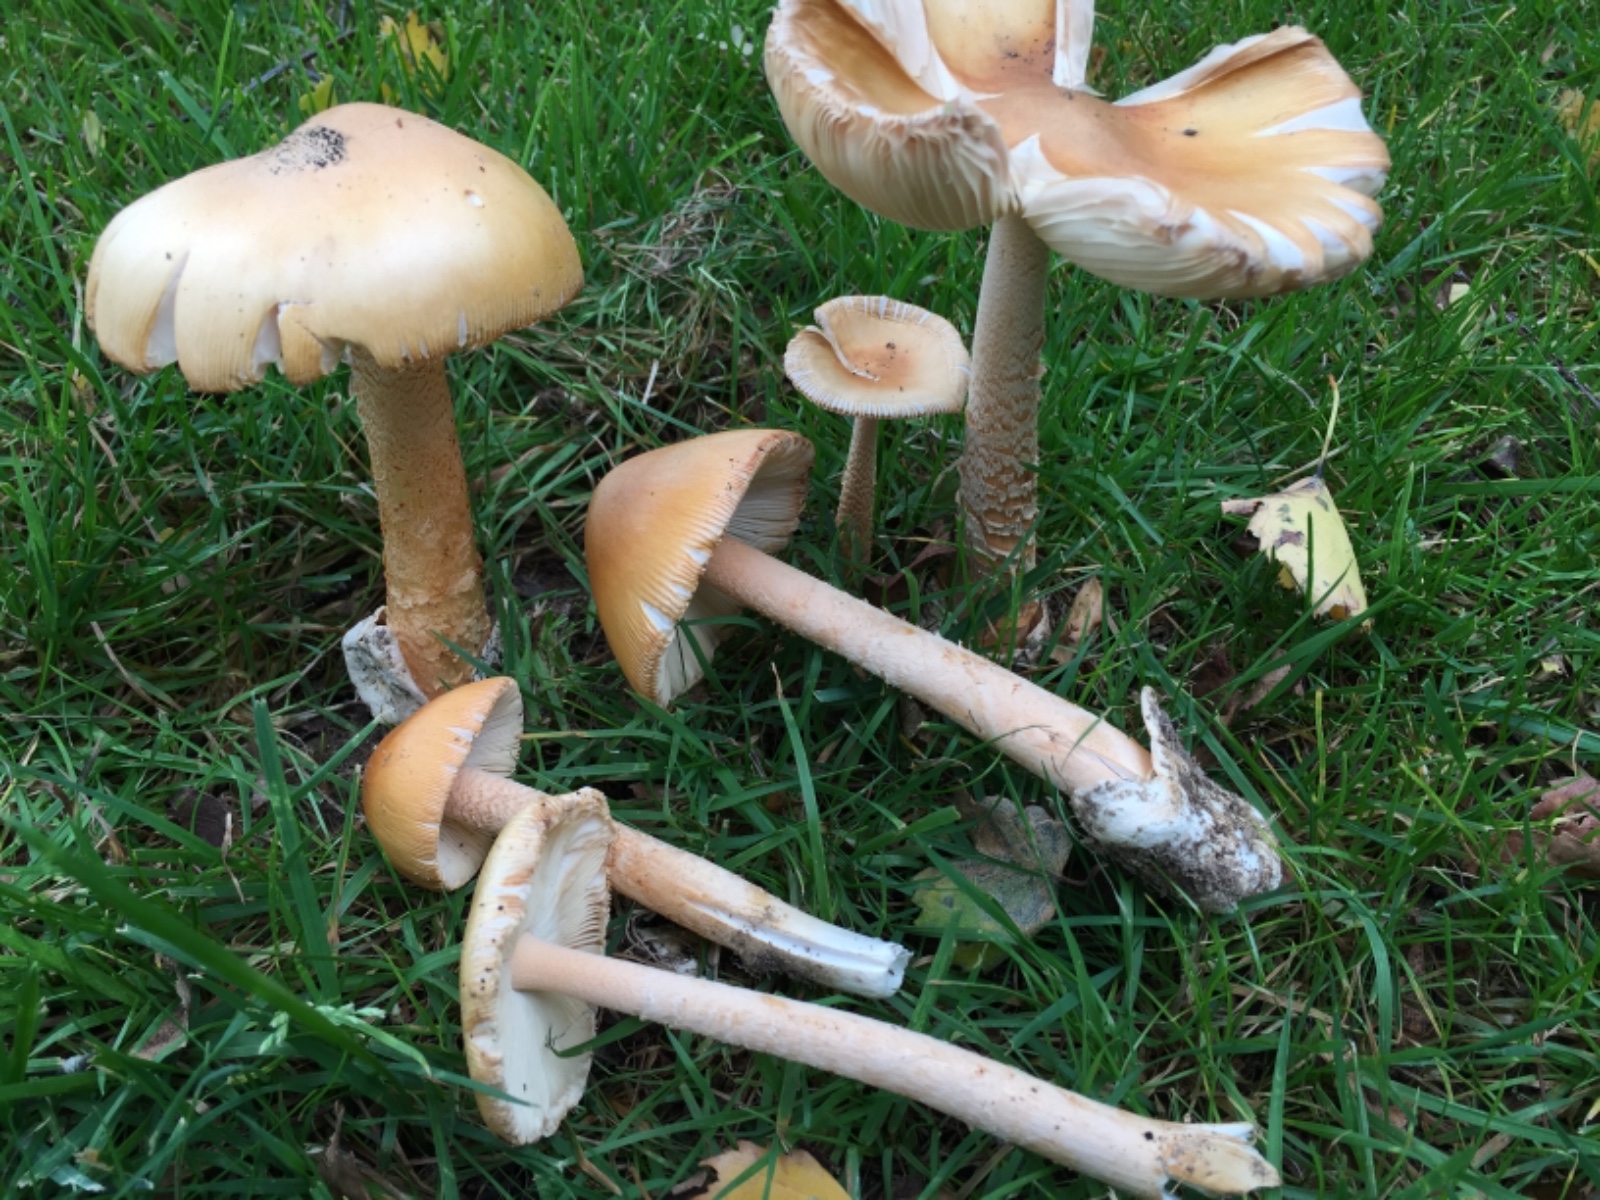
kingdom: Fungi
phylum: Basidiomycota
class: Agaricomycetes
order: Agaricales
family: Amanitaceae
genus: Amanita
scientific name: Amanita crocea
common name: gylden kam-fluesvamp
